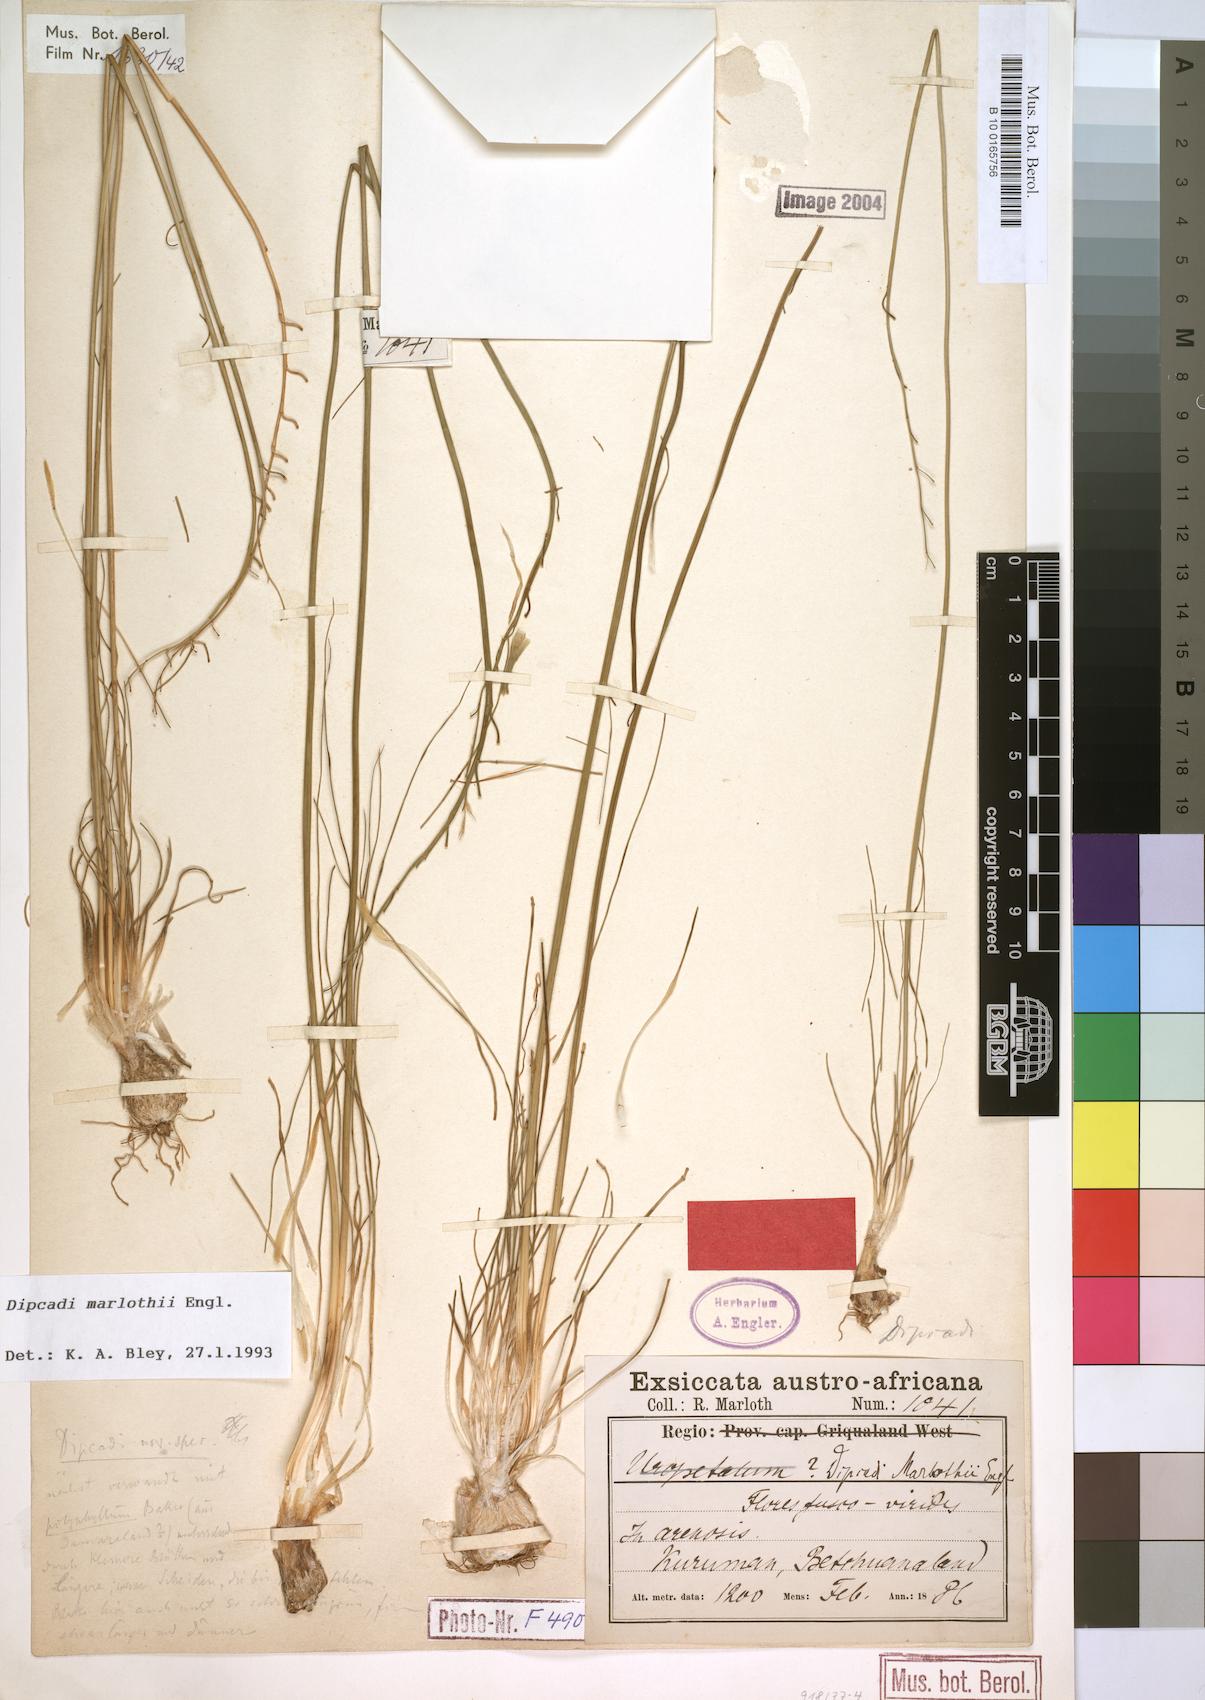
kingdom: Plantae
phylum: Tracheophyta
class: Liliopsida
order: Asparagales
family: Asparagaceae
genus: Dipcadi
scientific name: Dipcadi marlothii
